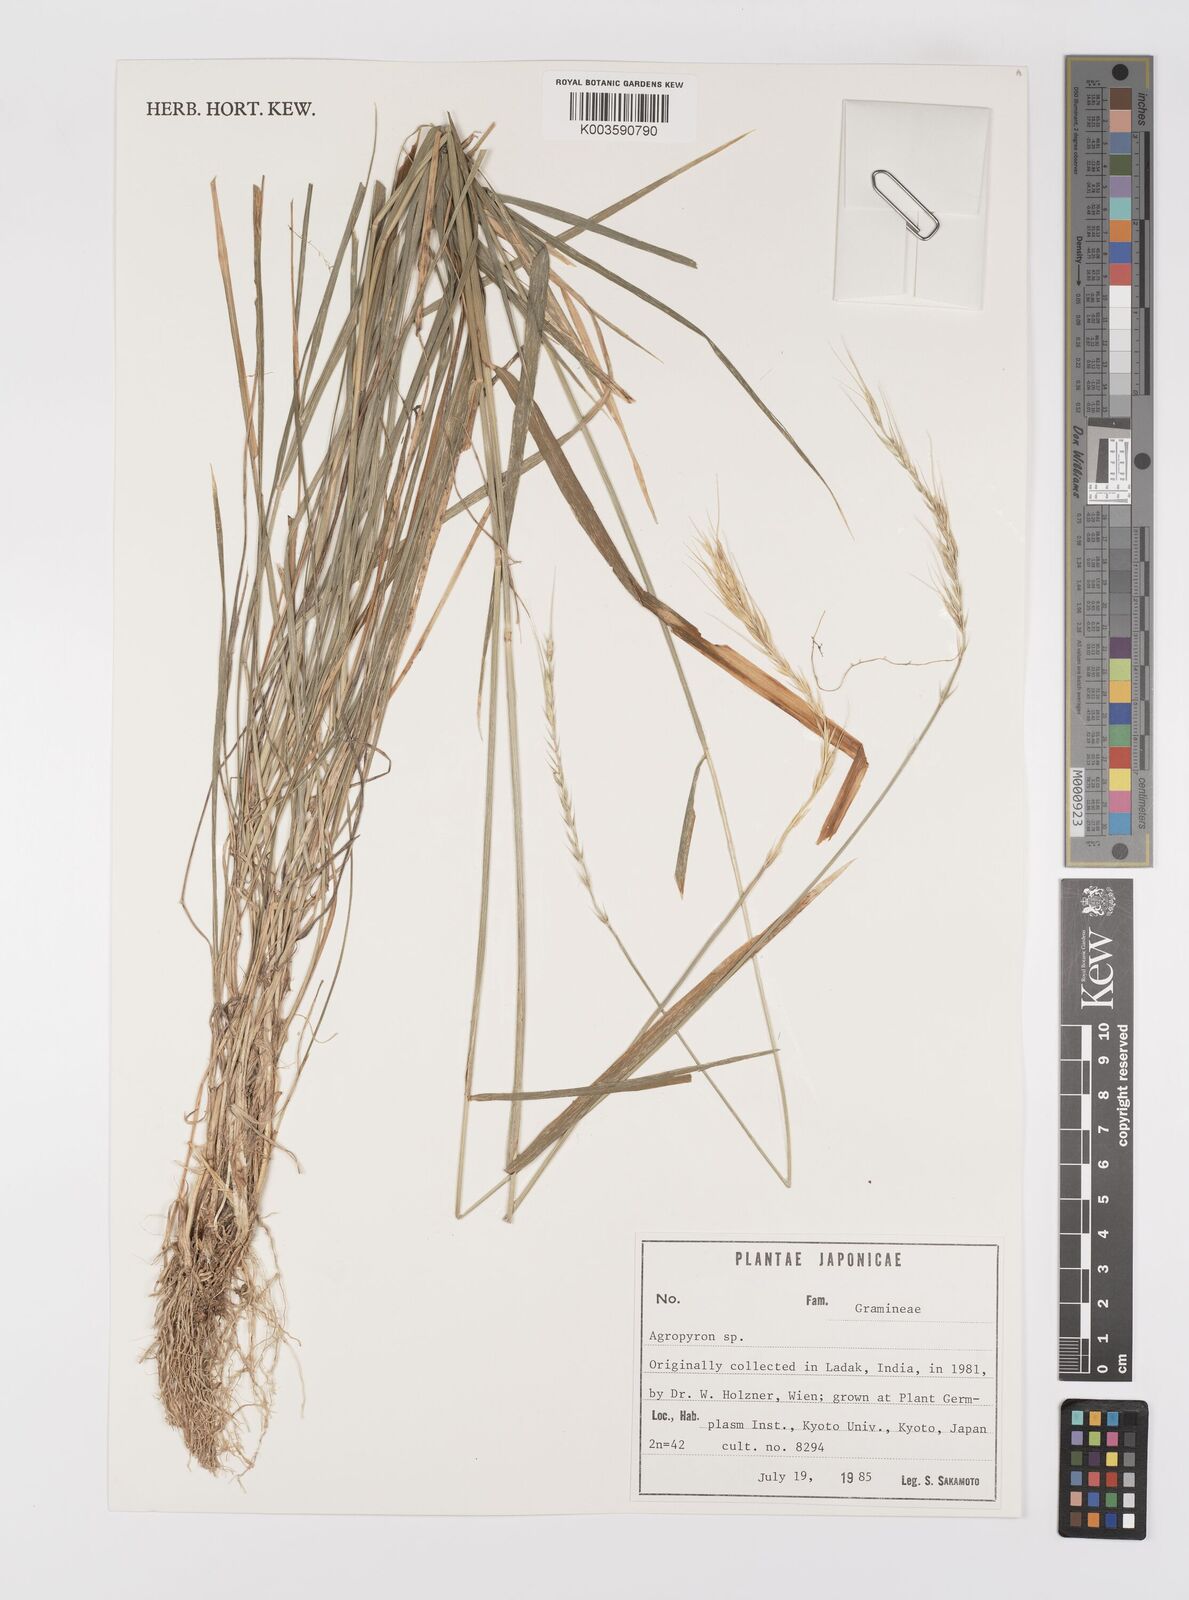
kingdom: Plantae
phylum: Tracheophyta
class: Liliopsida
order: Poales
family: Poaceae
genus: Elymus
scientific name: Elymus
